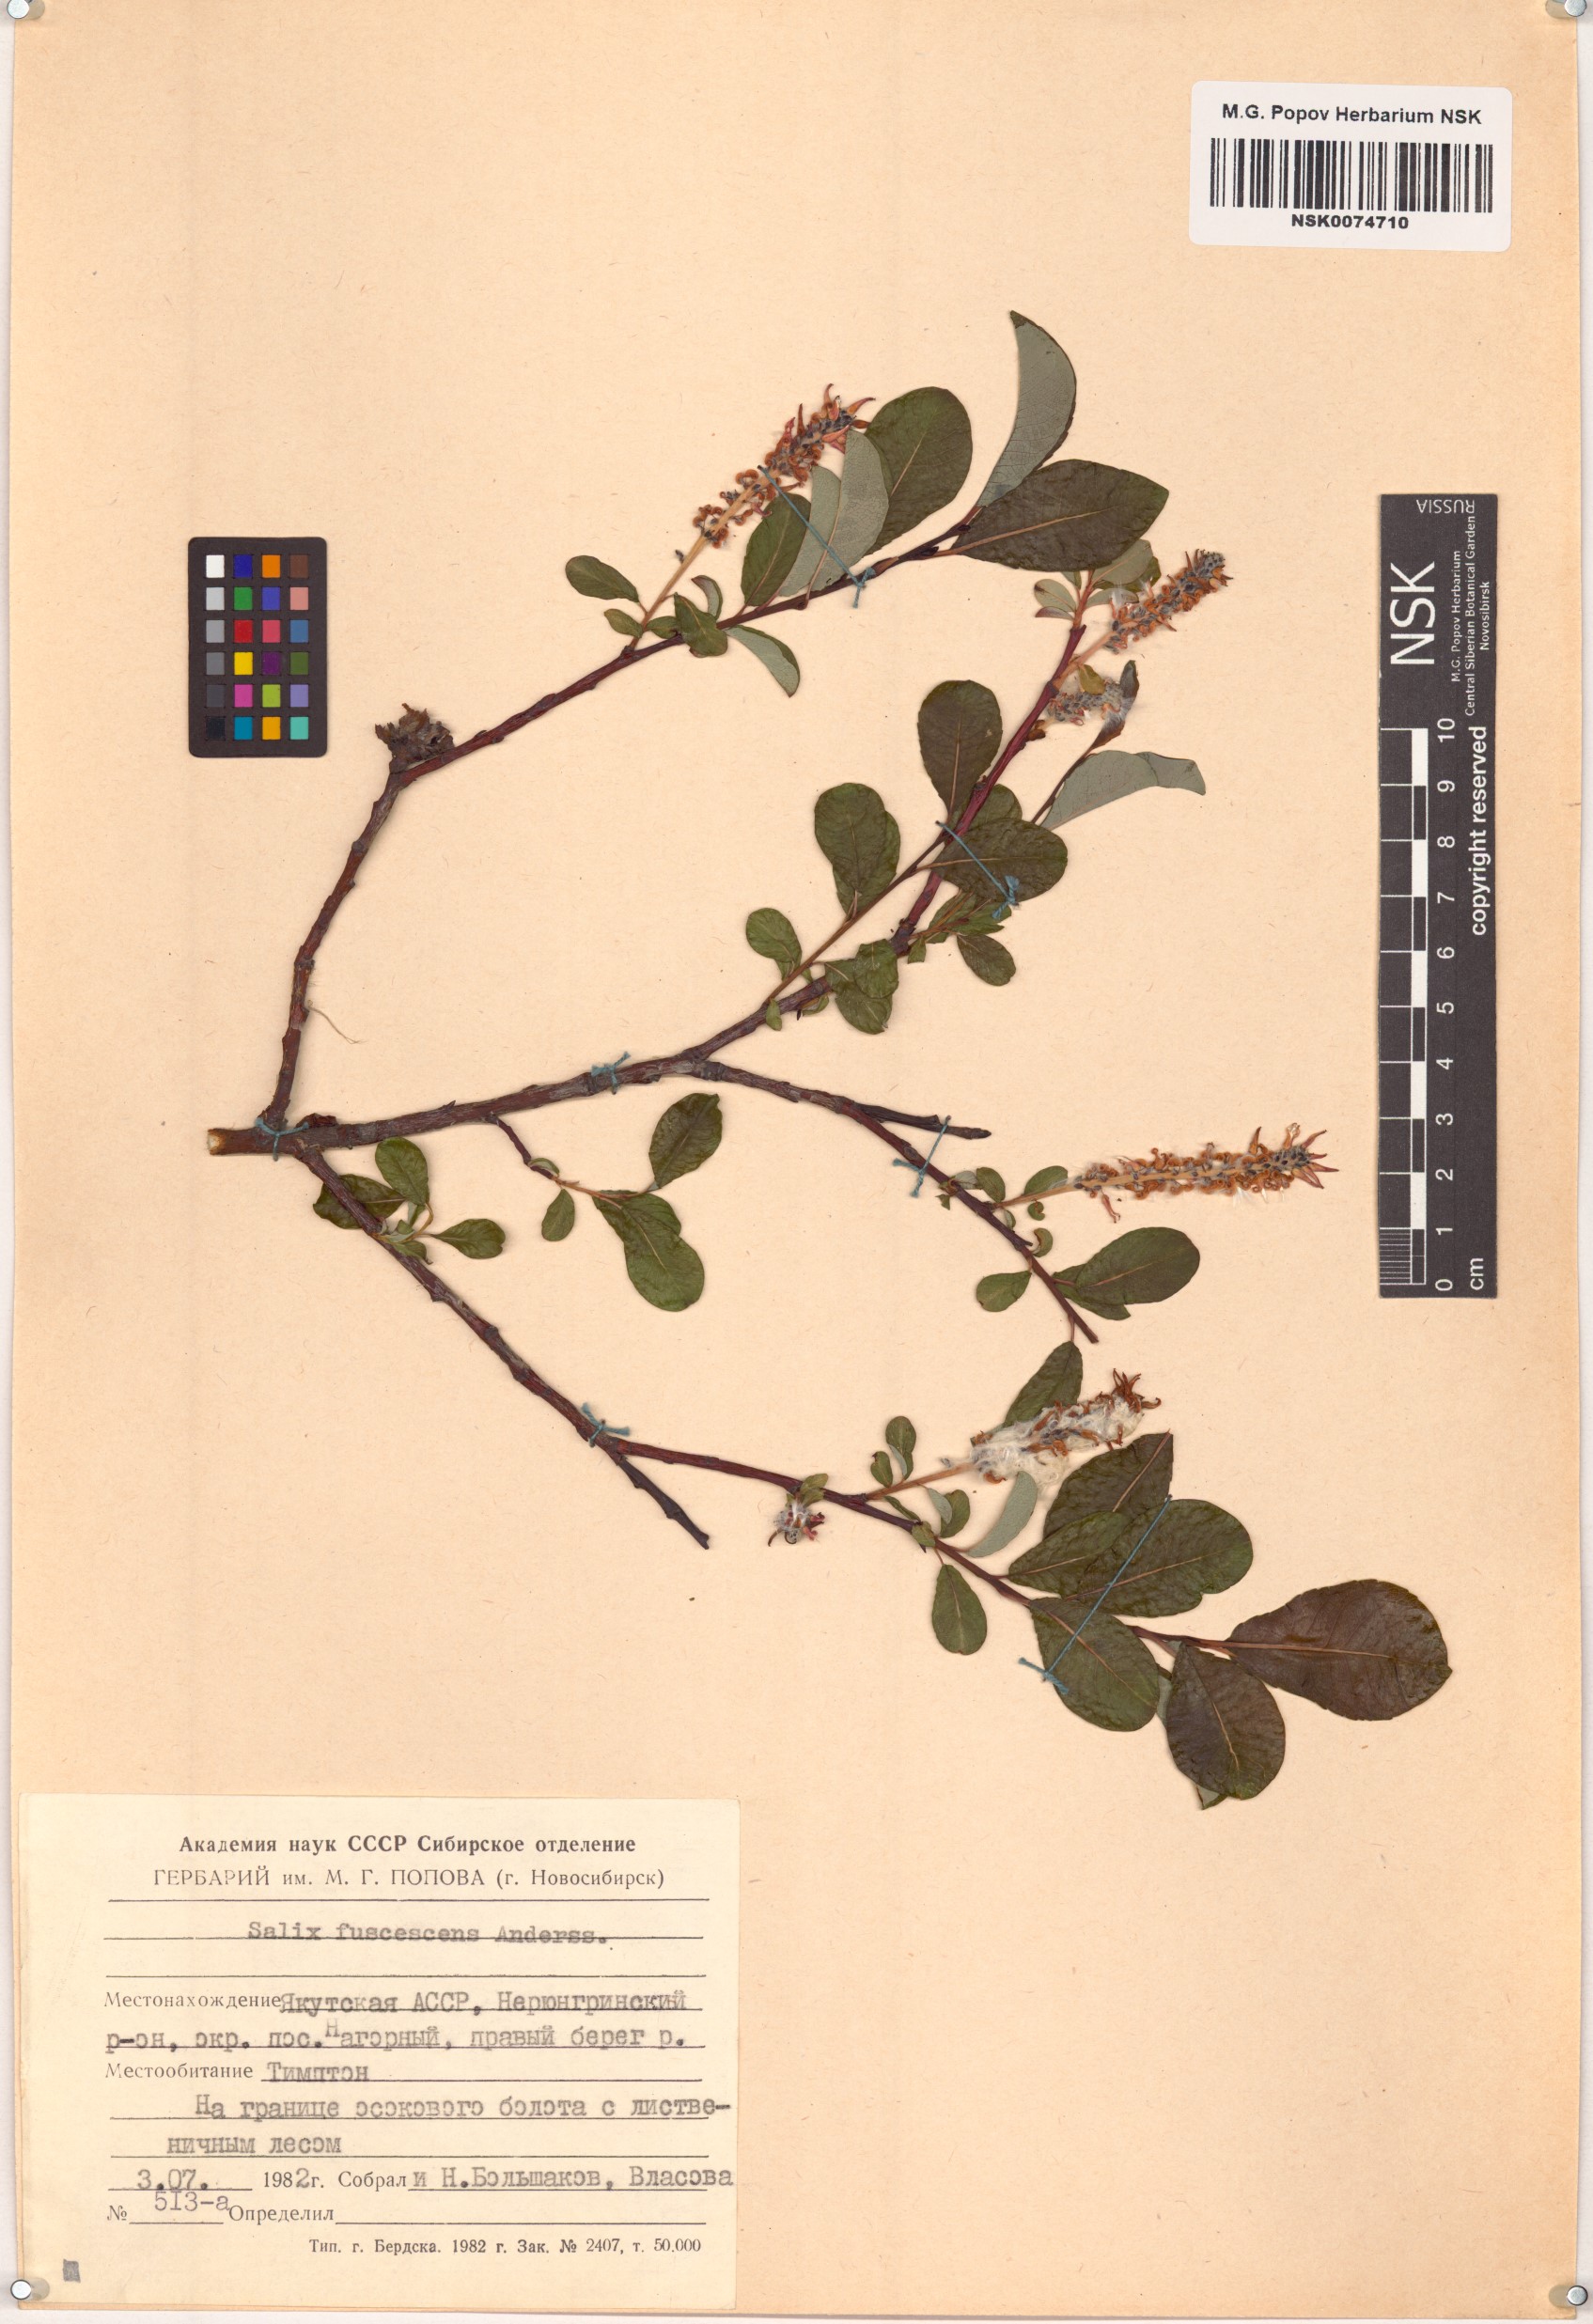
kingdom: Plantae
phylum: Tracheophyta
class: Magnoliopsida
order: Malpighiales
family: Salicaceae
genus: Salix
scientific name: Salix fuscescens
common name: Brownish willow
